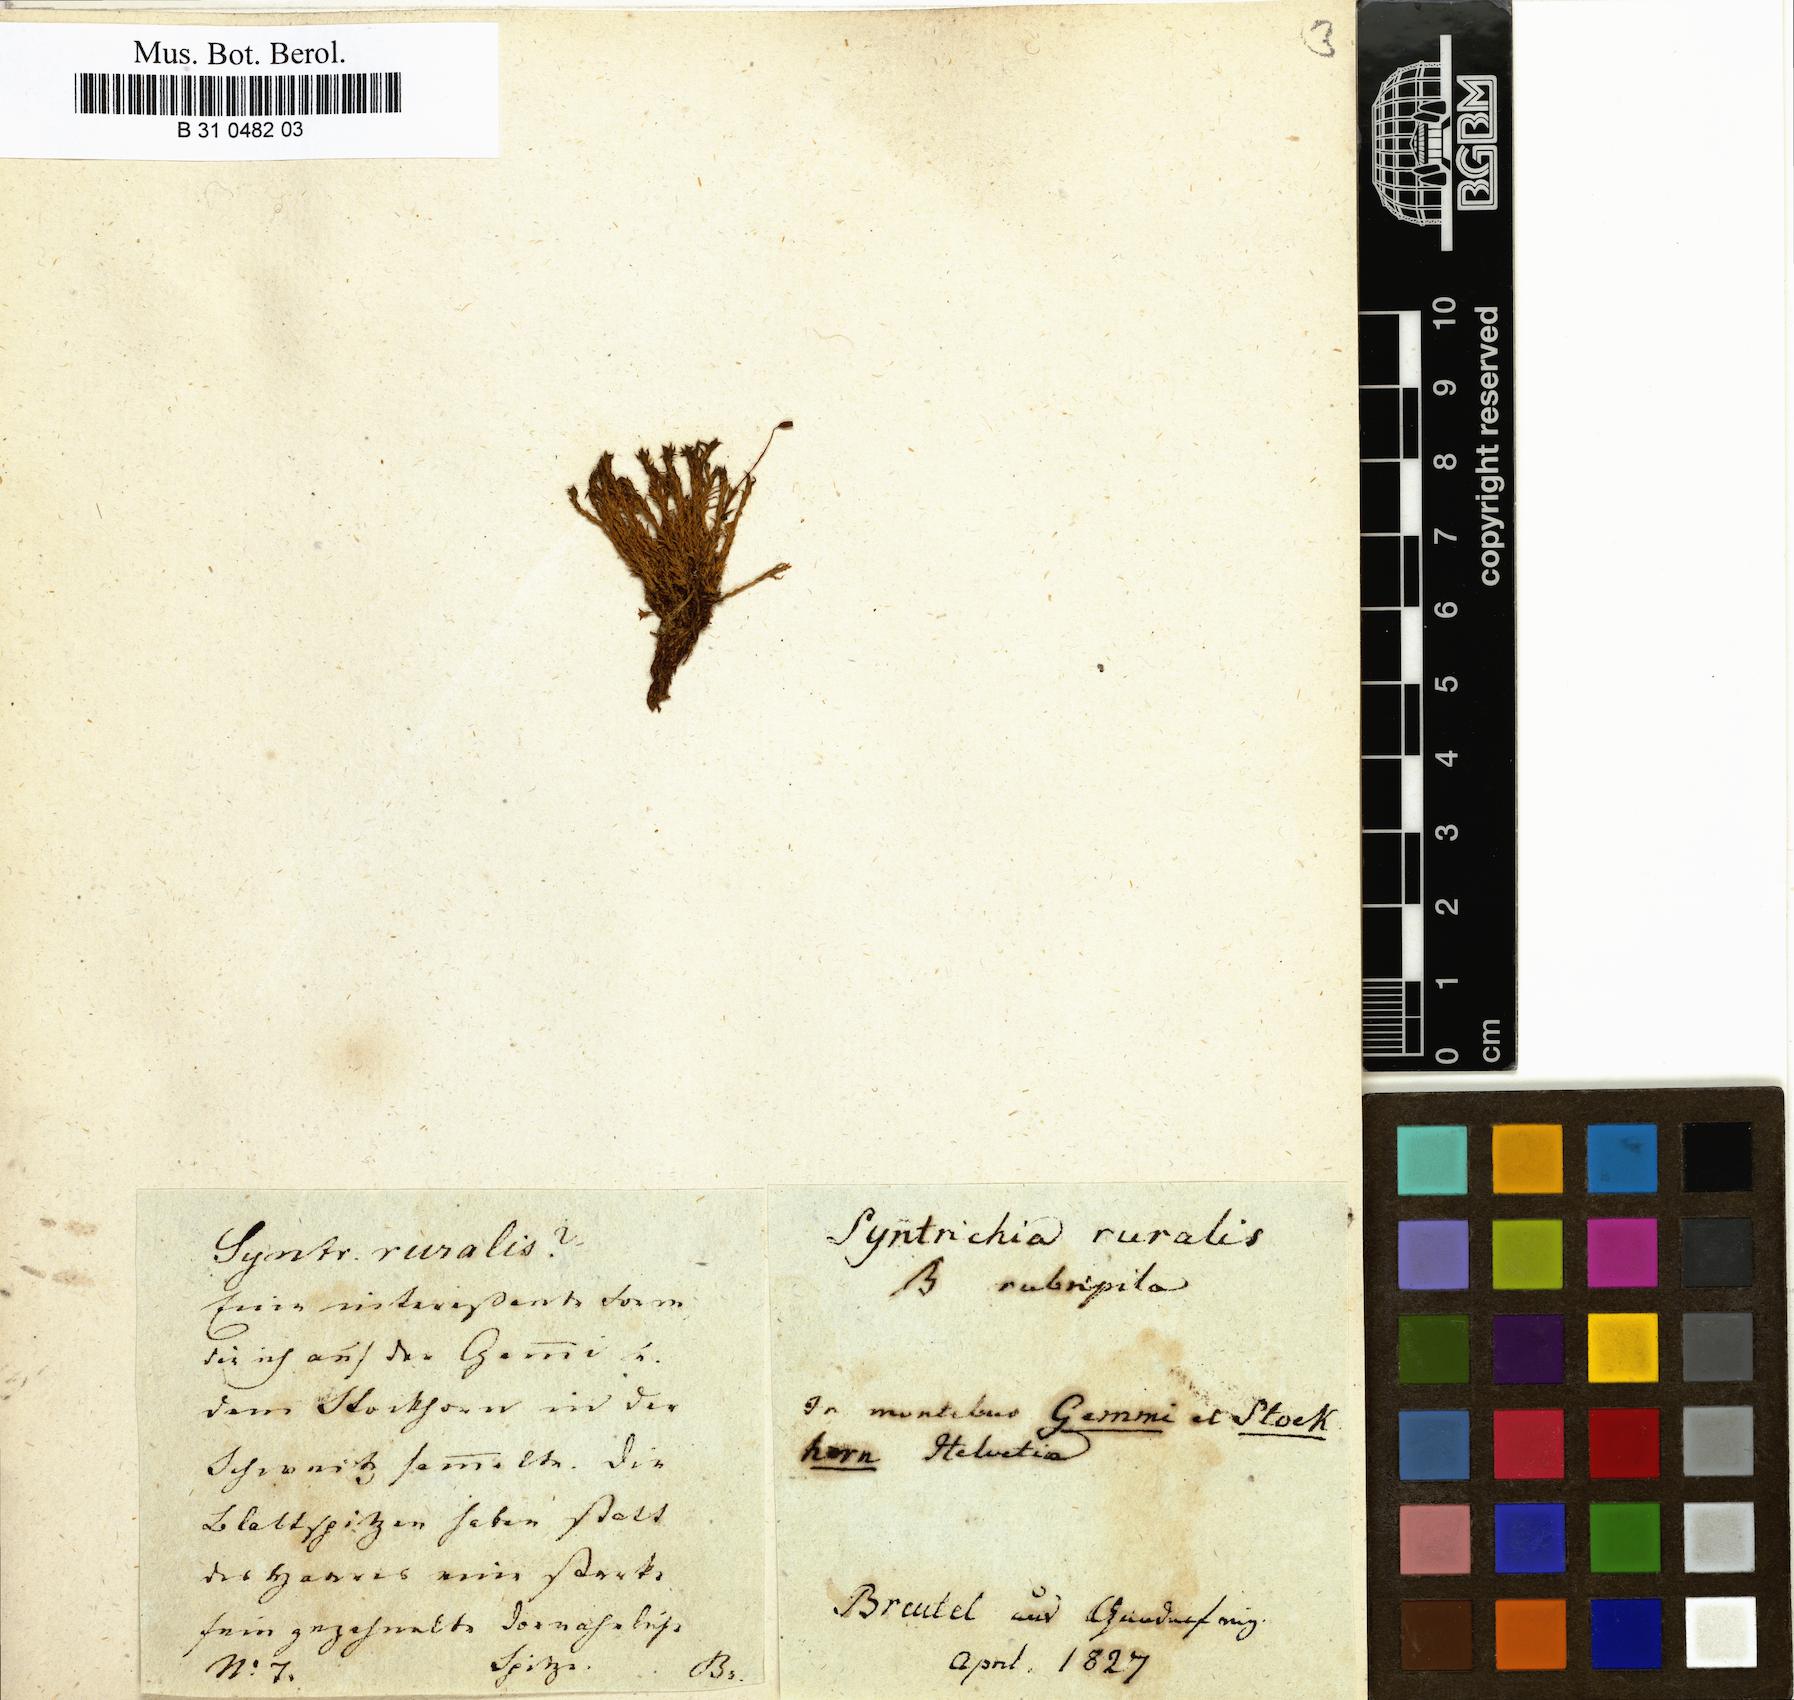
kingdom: Plantae
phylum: Bryophyta
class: Bryopsida
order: Pottiales
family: Pottiaceae
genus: Syntrichia
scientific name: Syntrichia ruralis
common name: Sidewalk screw moss
